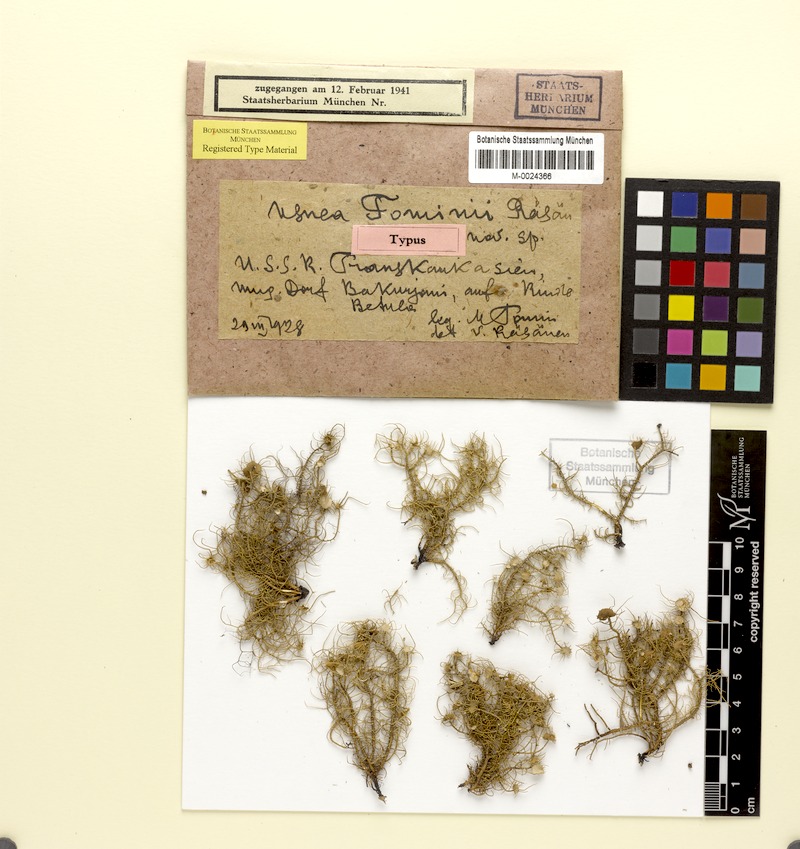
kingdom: Fungi
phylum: Ascomycota
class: Lecanoromycetes
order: Lecanorales
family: Parmeliaceae
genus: Usnea
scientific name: Usnea florida
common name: Witches' whiskers lichen
